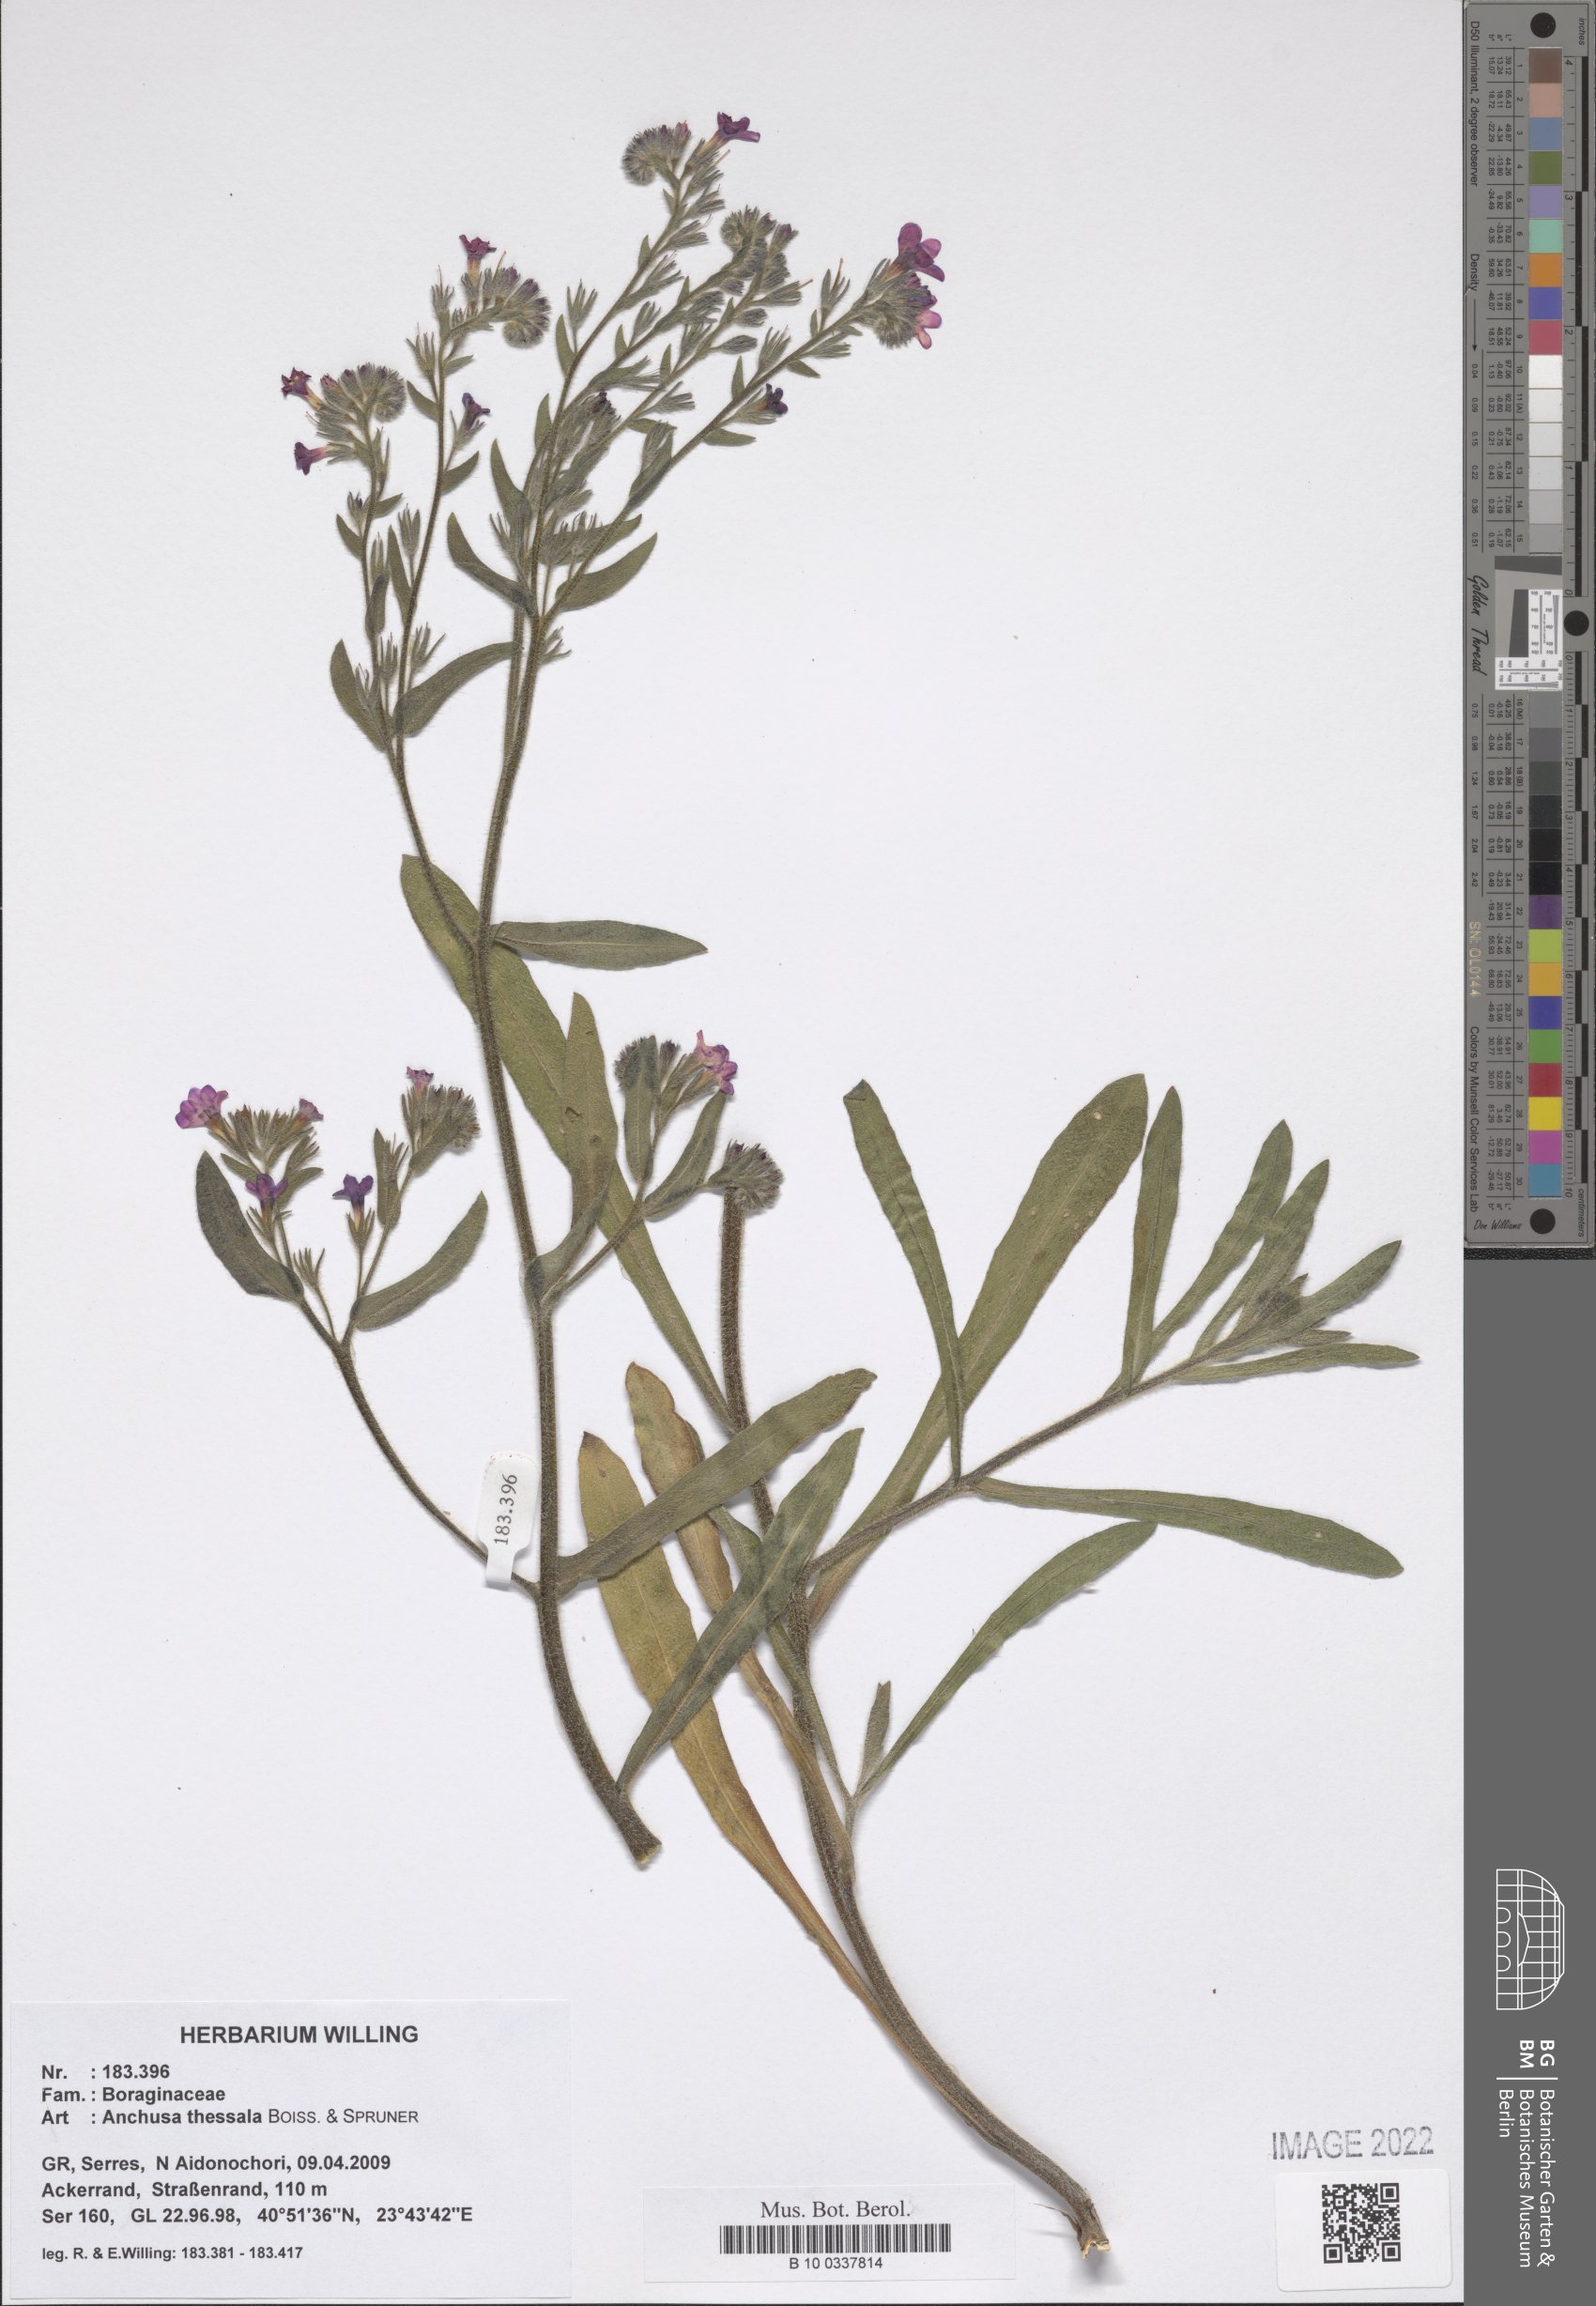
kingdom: Plantae
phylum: Tracheophyta
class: Magnoliopsida
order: Boraginales
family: Boraginaceae
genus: Anchusa
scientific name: Anchusa thessala
